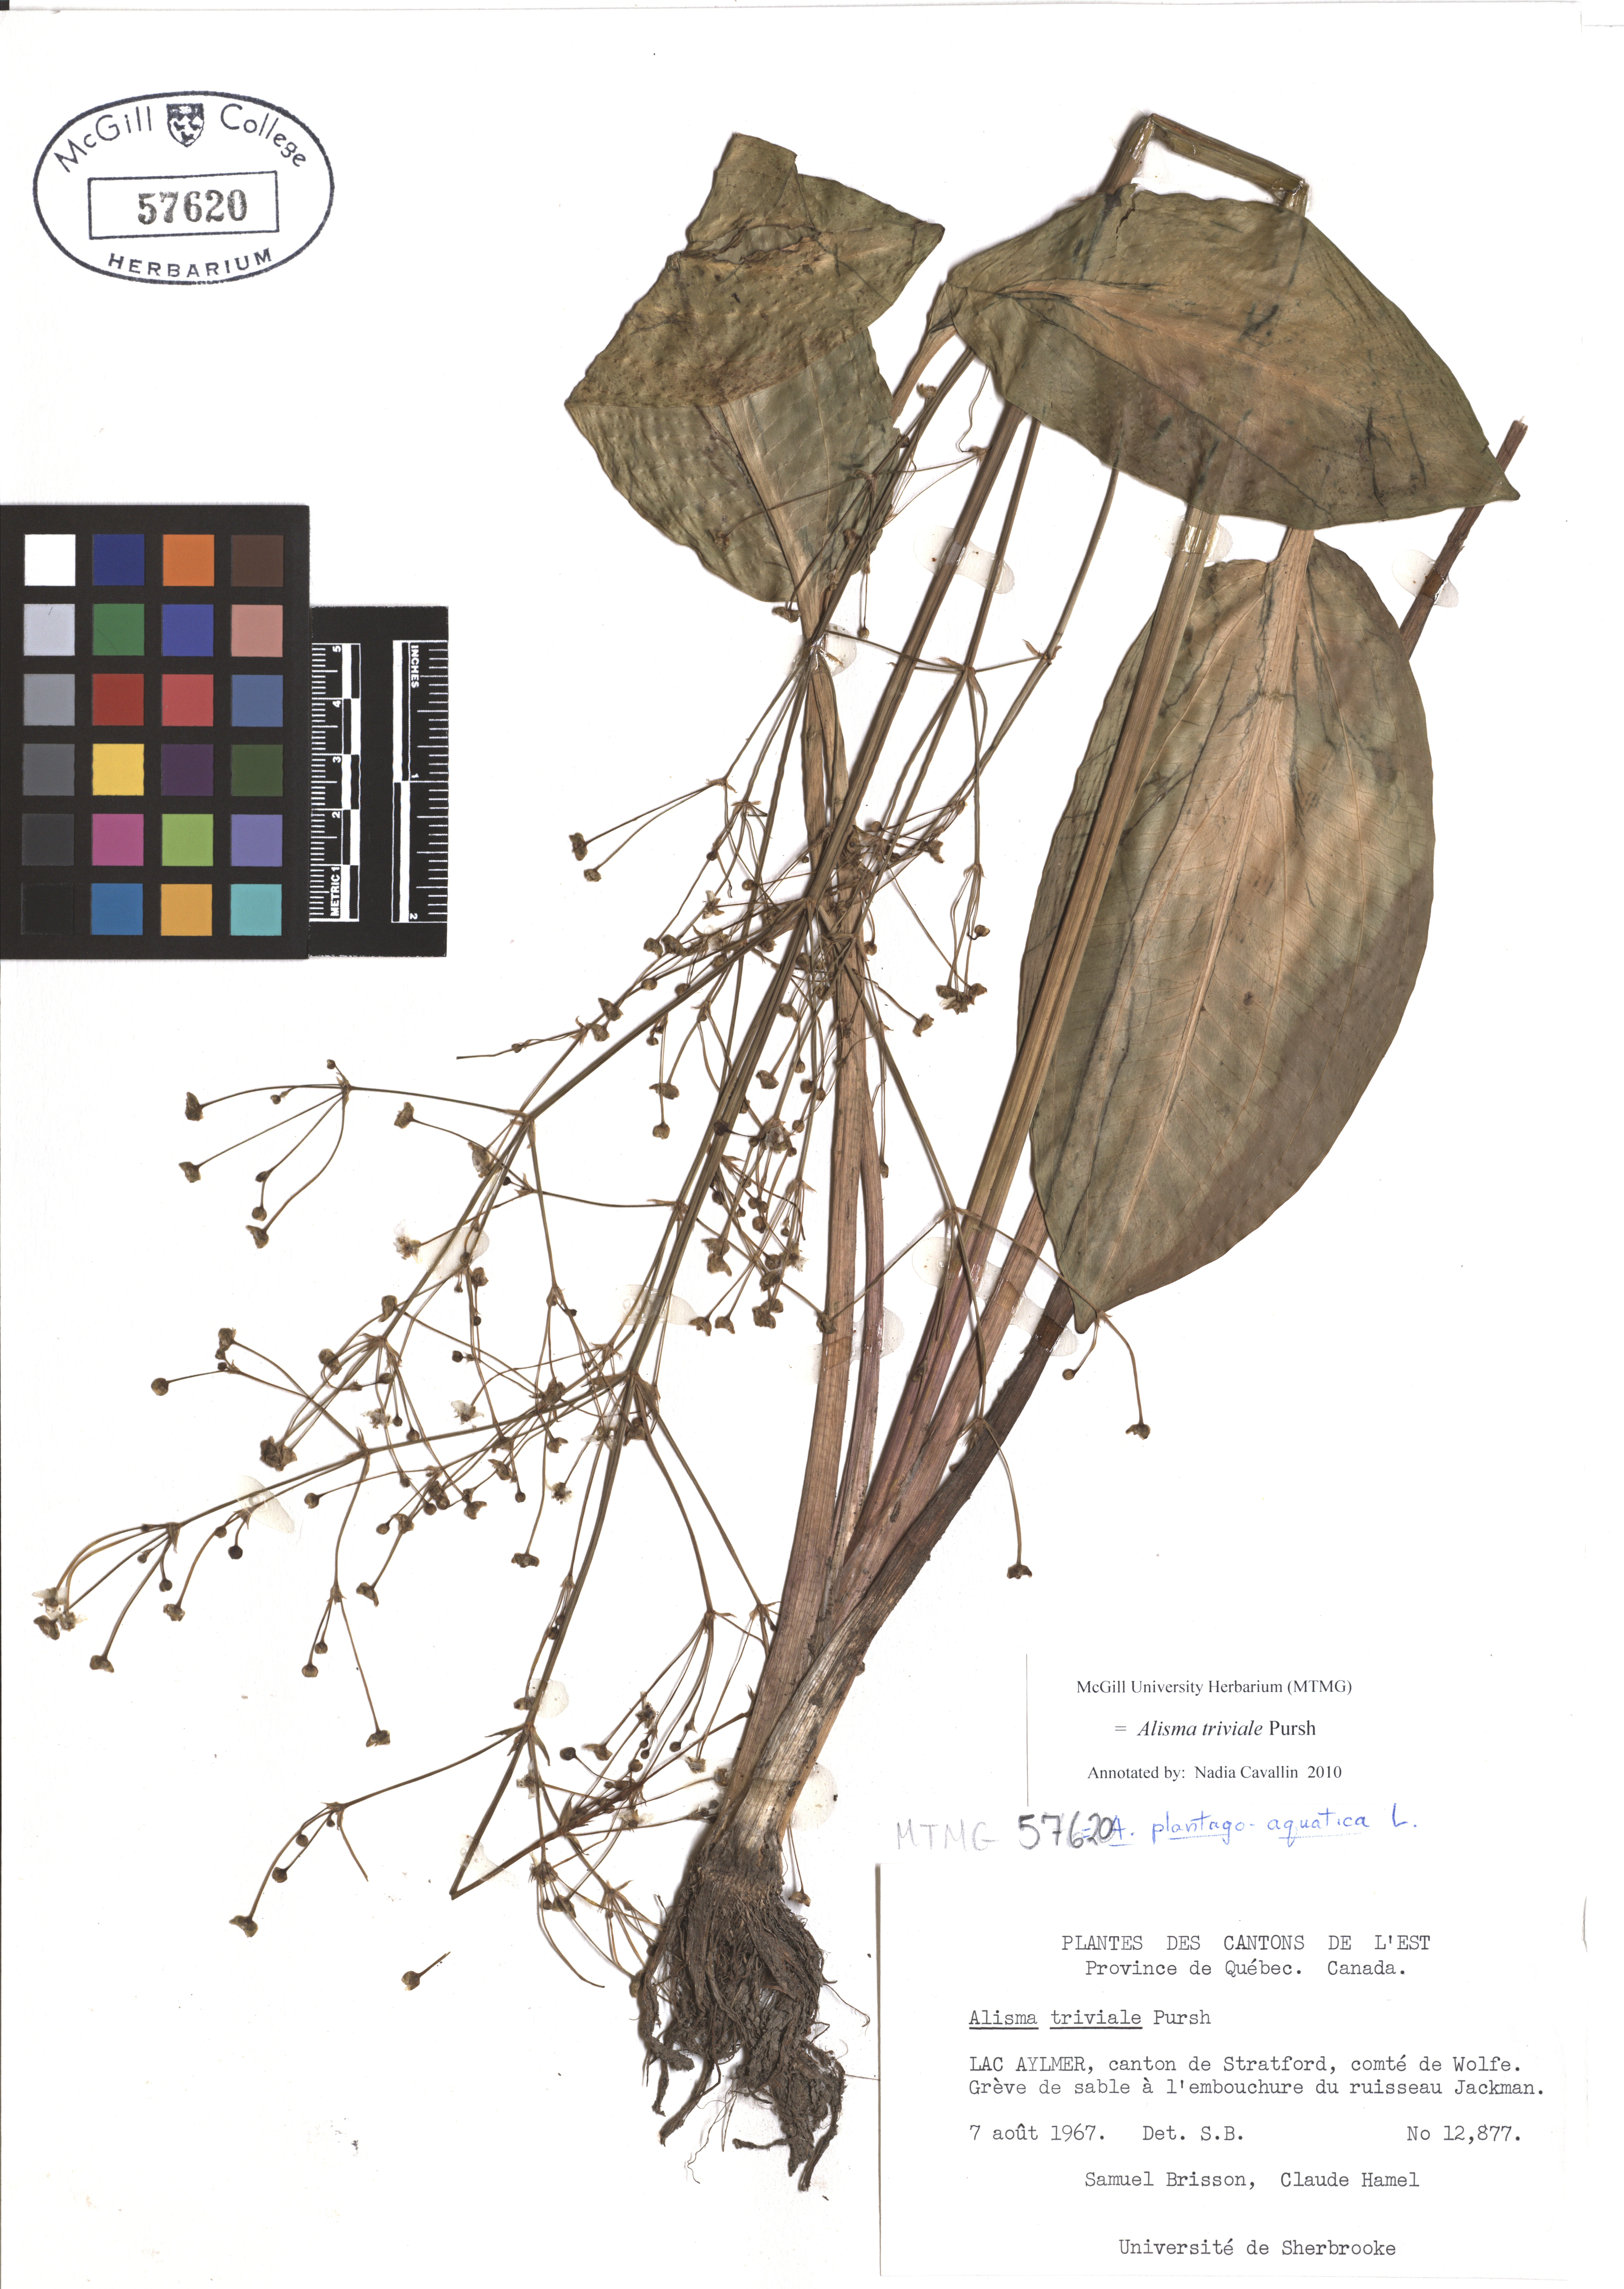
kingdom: Plantae
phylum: Tracheophyta
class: Liliopsida
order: Alismatales
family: Alismataceae
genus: Alisma
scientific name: Alisma triviale
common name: Northern water-plantain
